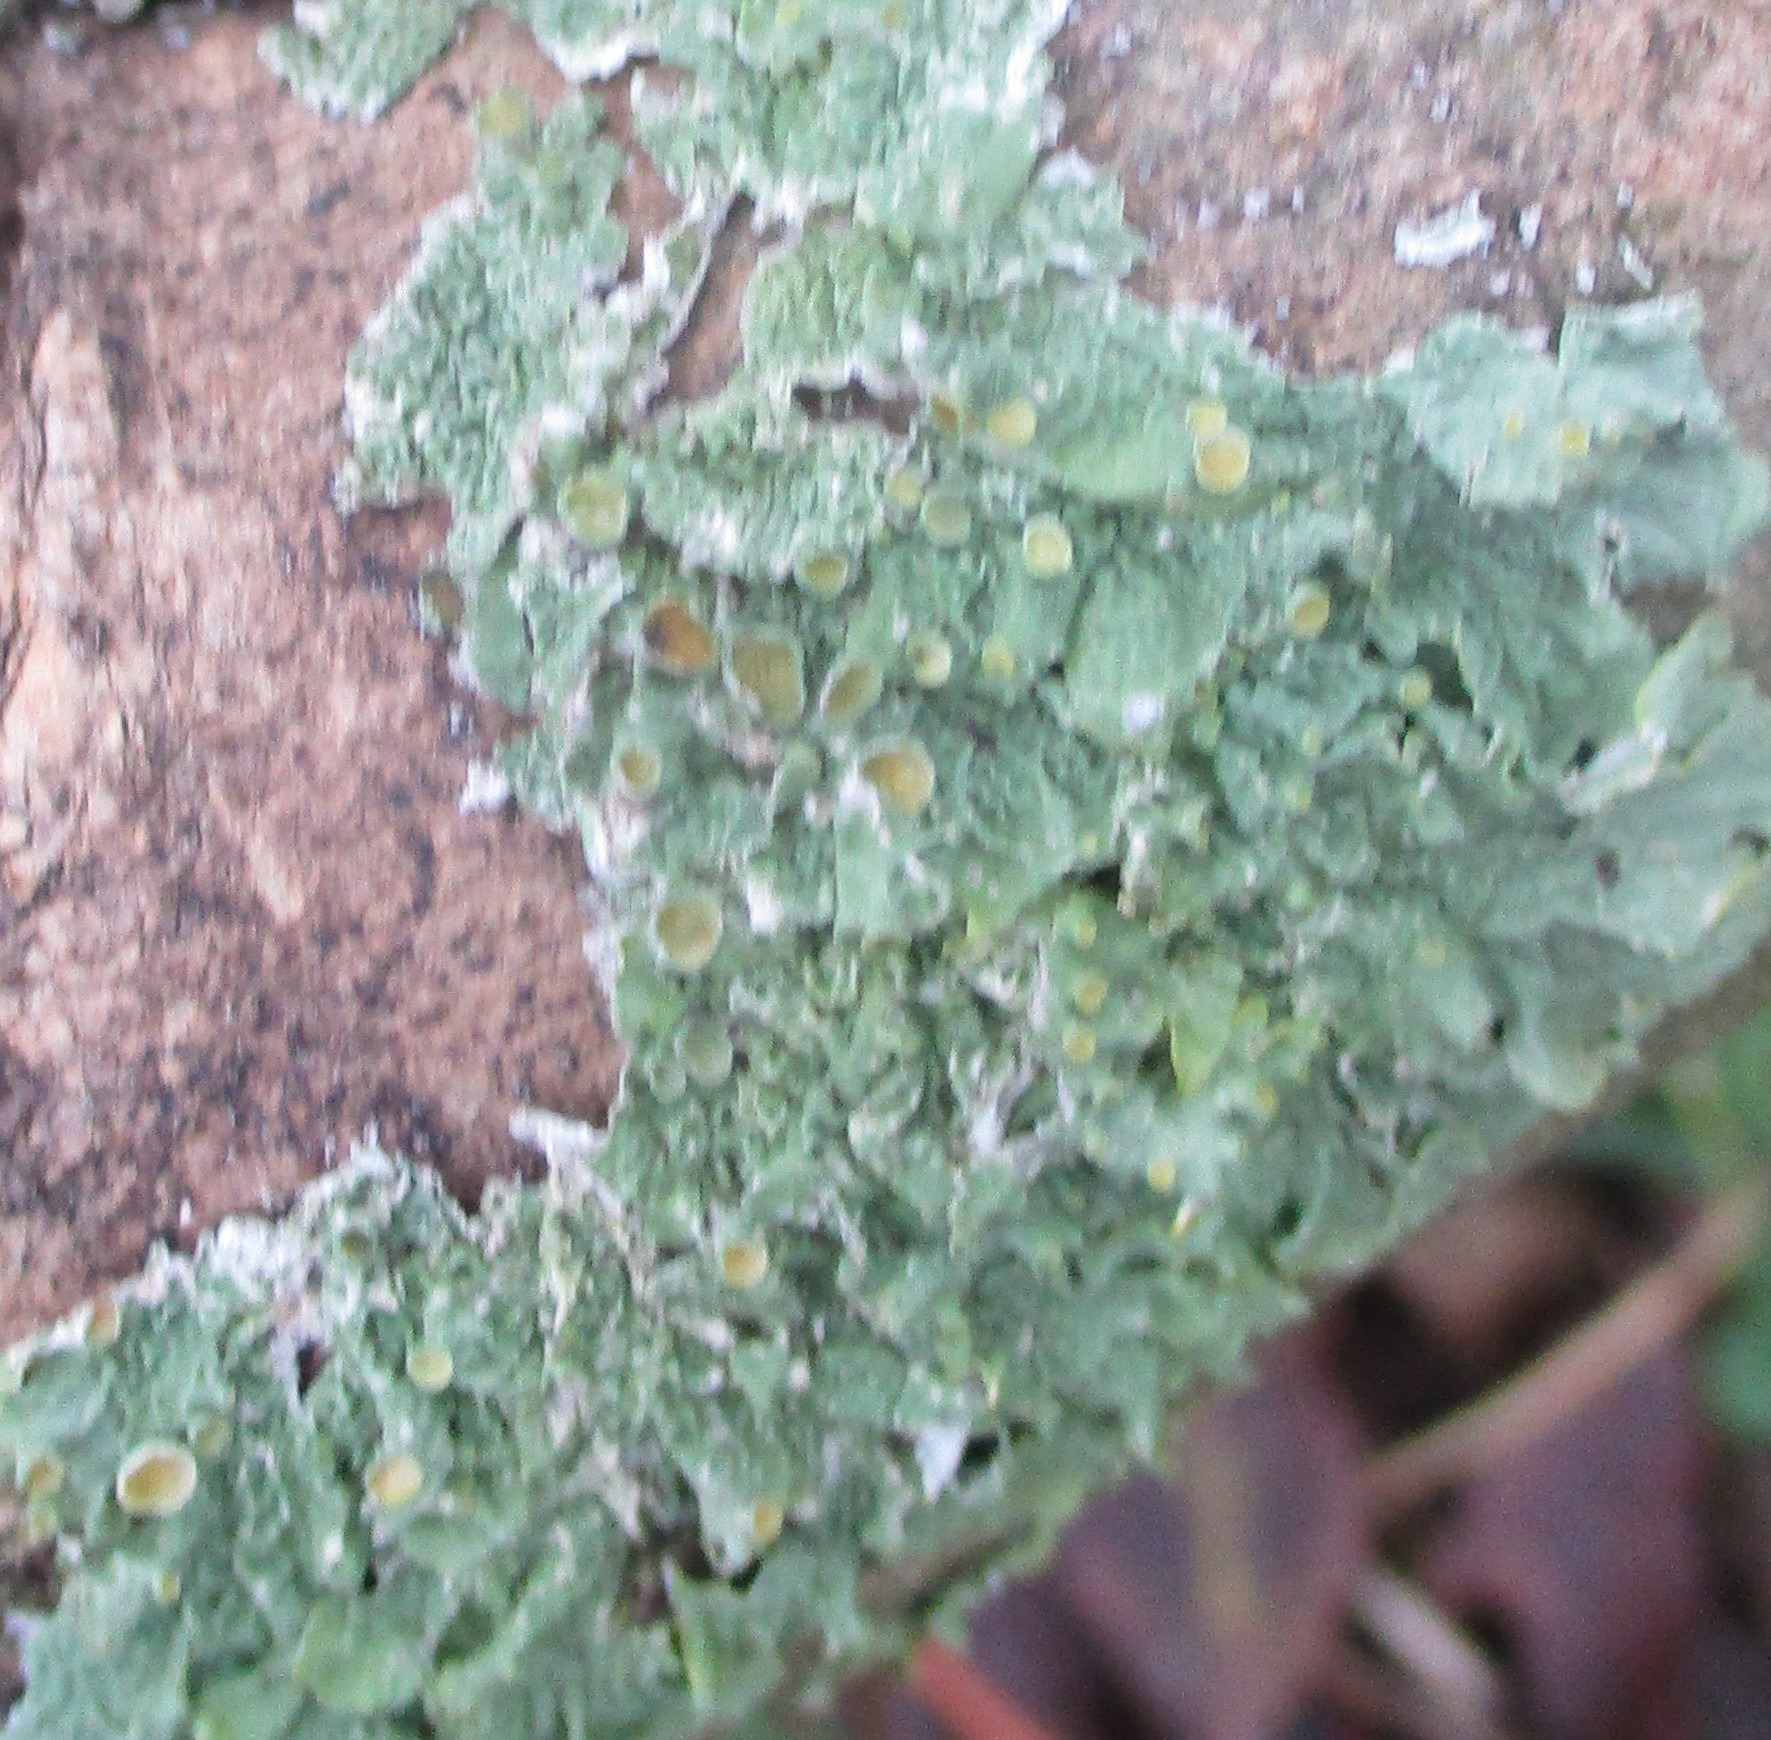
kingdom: Fungi
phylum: Ascomycota
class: Lecanoromycetes
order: Teloschistales
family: Teloschistaceae
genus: Xanthoria
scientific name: Xanthoria parietina
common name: Almindelig væggelav
